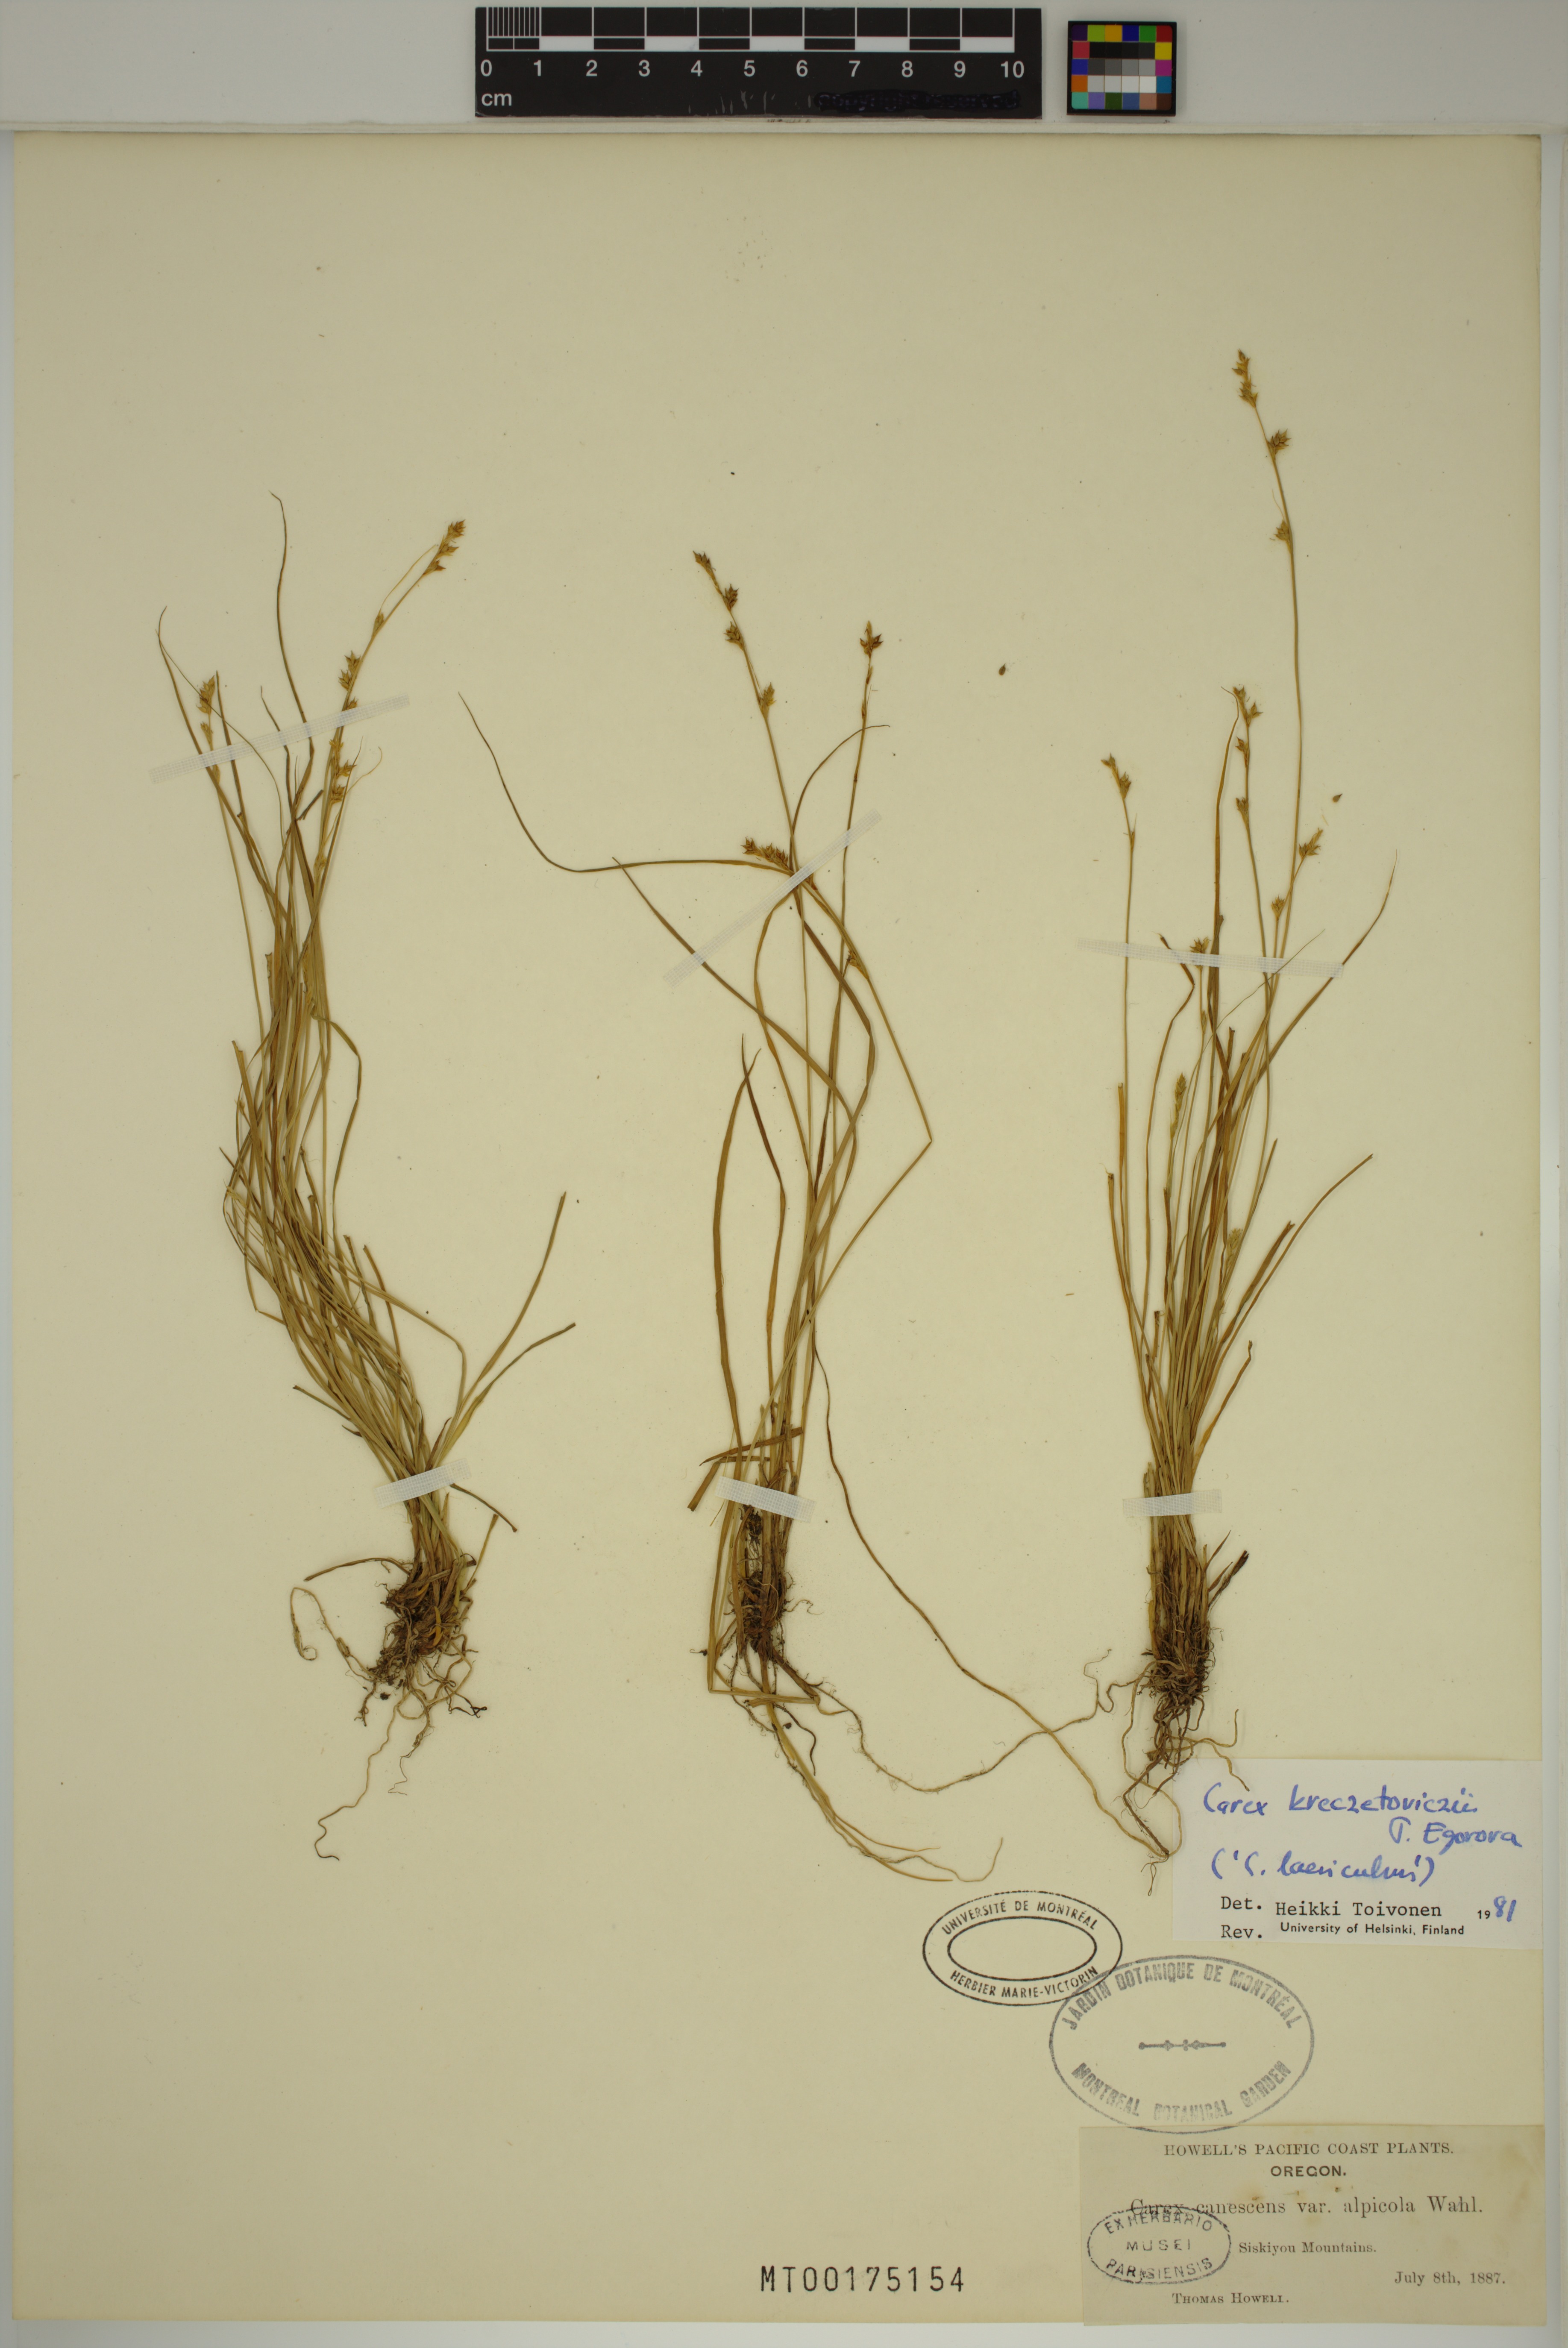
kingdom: Plantae
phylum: Tracheophyta
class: Liliopsida
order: Poales
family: Cyperaceae
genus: Carex
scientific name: Carex kreczetoviczii
